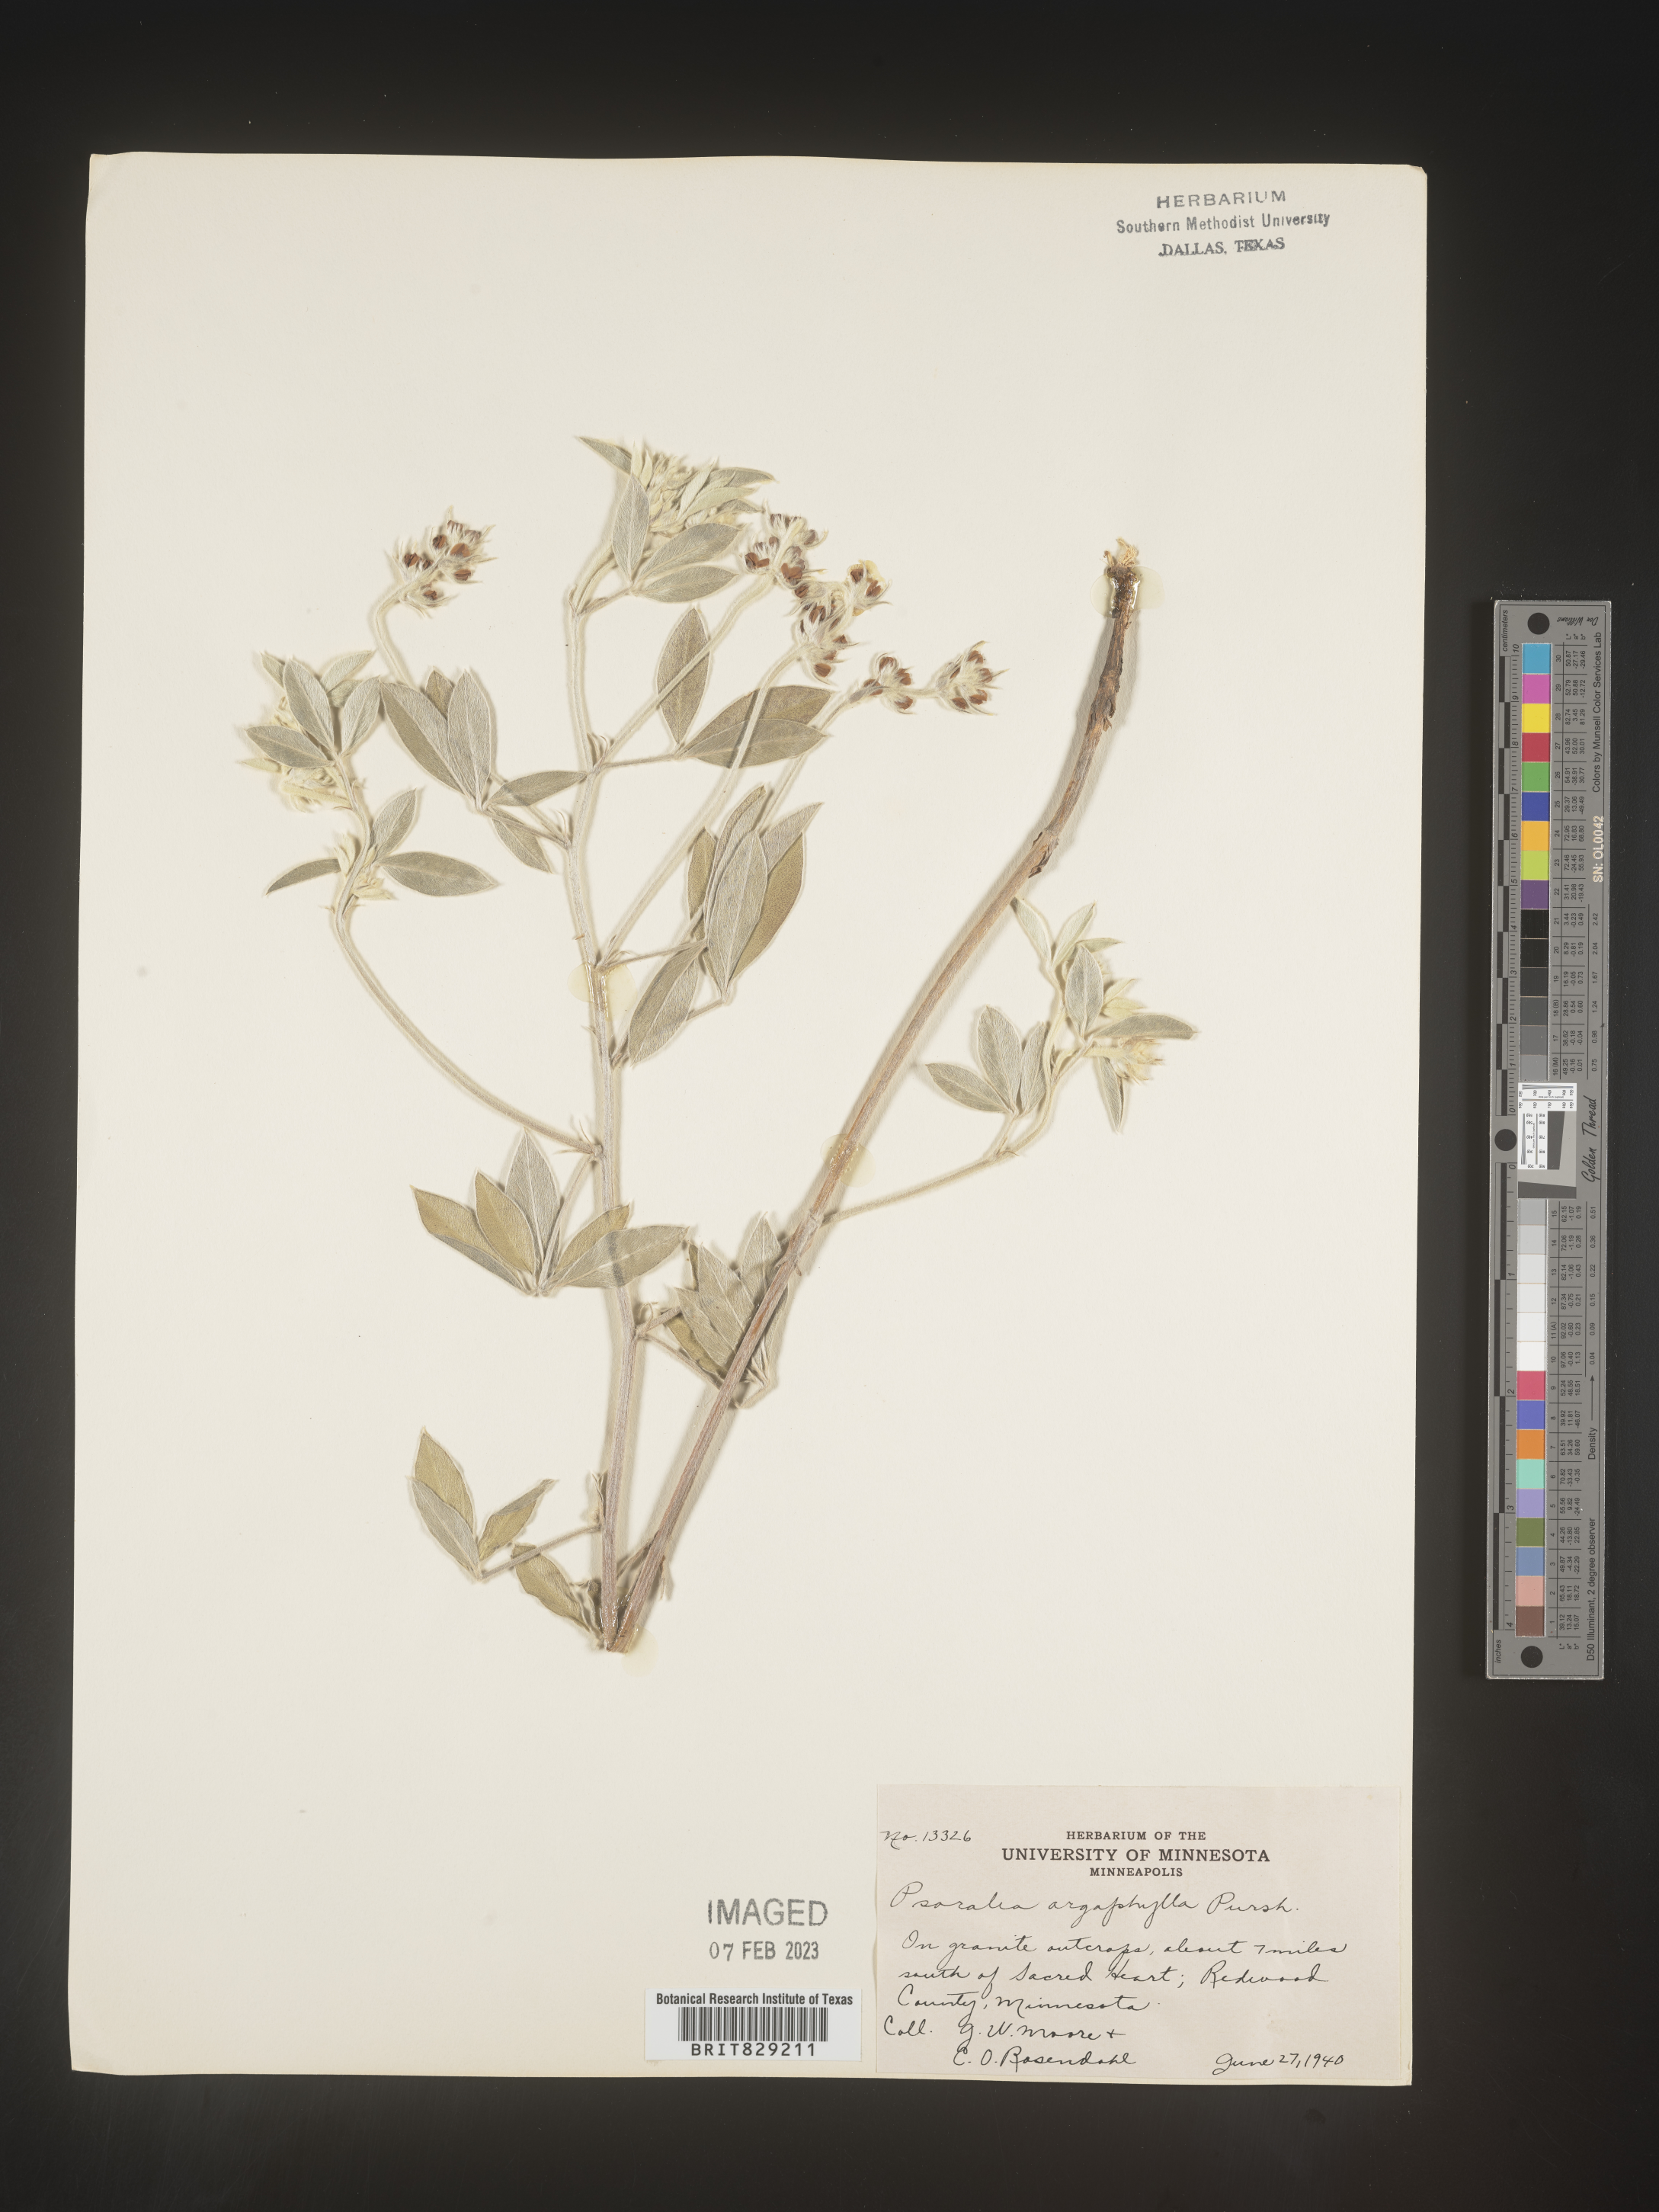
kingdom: Plantae
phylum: Tracheophyta
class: Magnoliopsida
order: Fabales
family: Fabaceae
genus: Pediomelum
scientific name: Pediomelum argophyllum
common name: Silver-leaved indian breadroot
